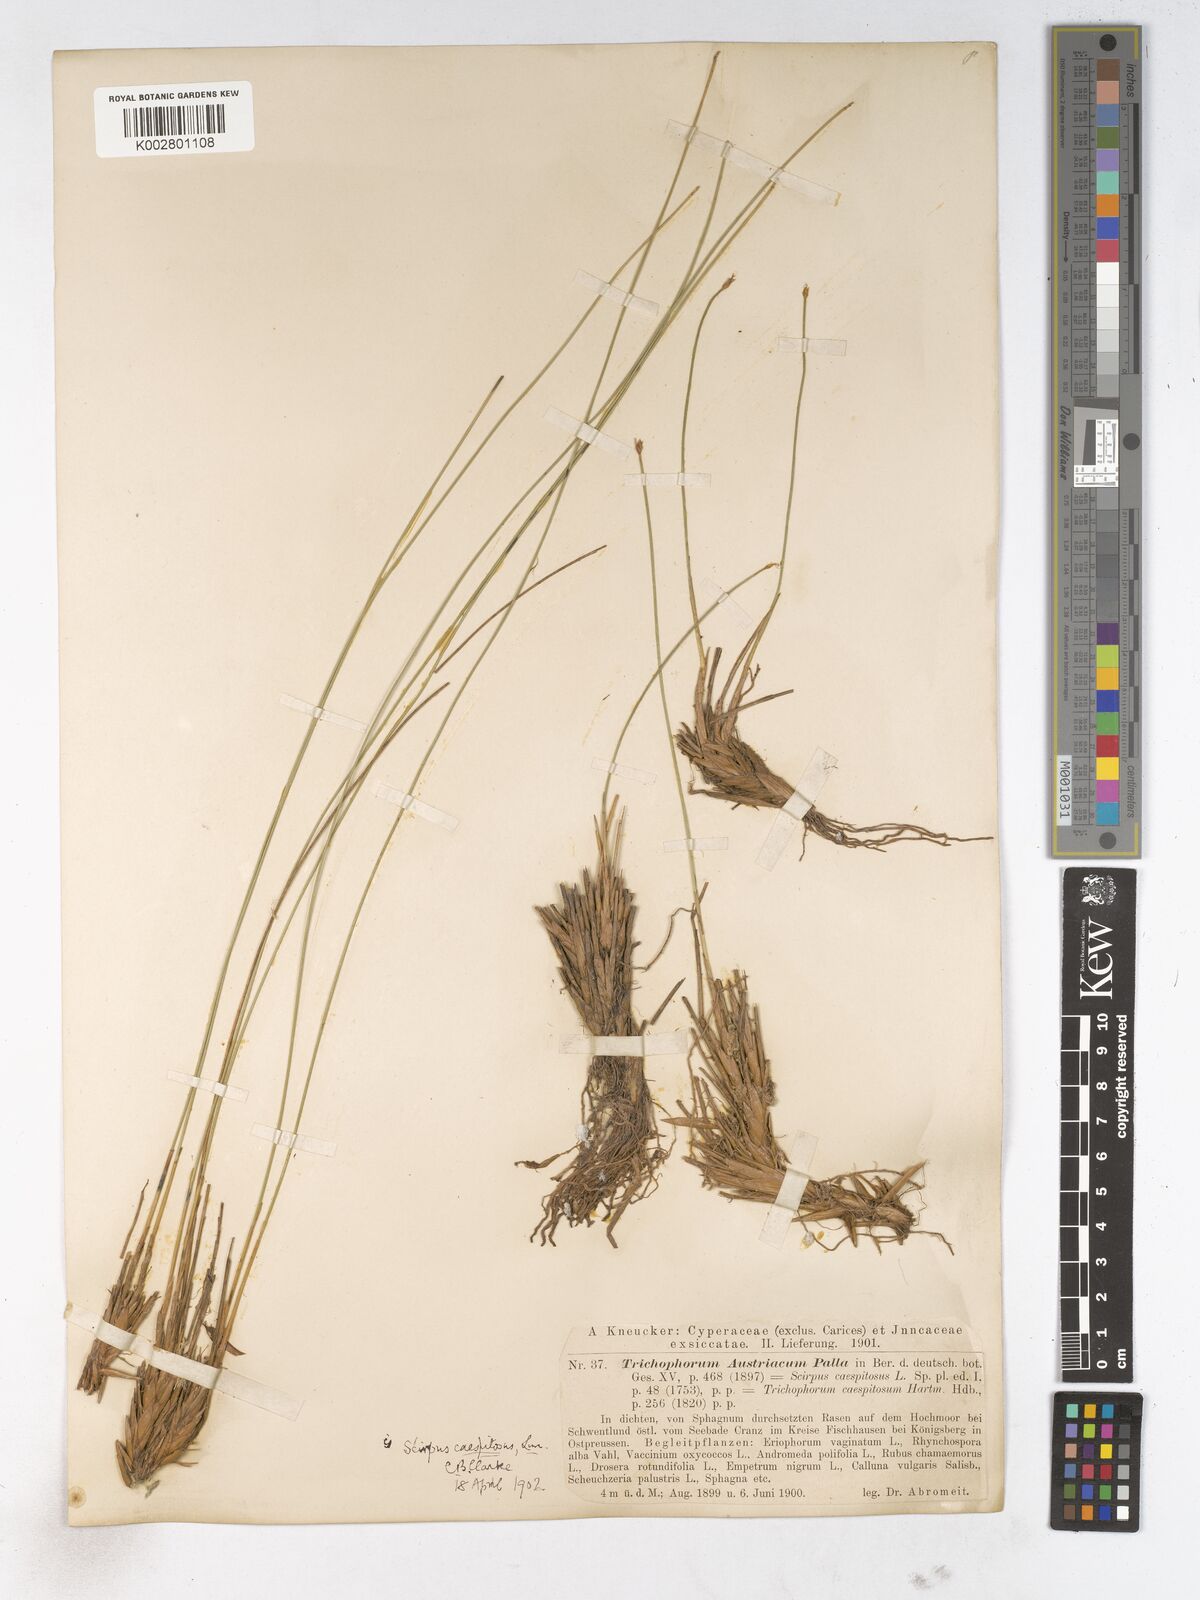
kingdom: Plantae
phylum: Tracheophyta
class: Liliopsida
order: Poales
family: Cyperaceae
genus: Trichophorum
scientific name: Trichophorum cespitosum
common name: Cespitose bulrush
